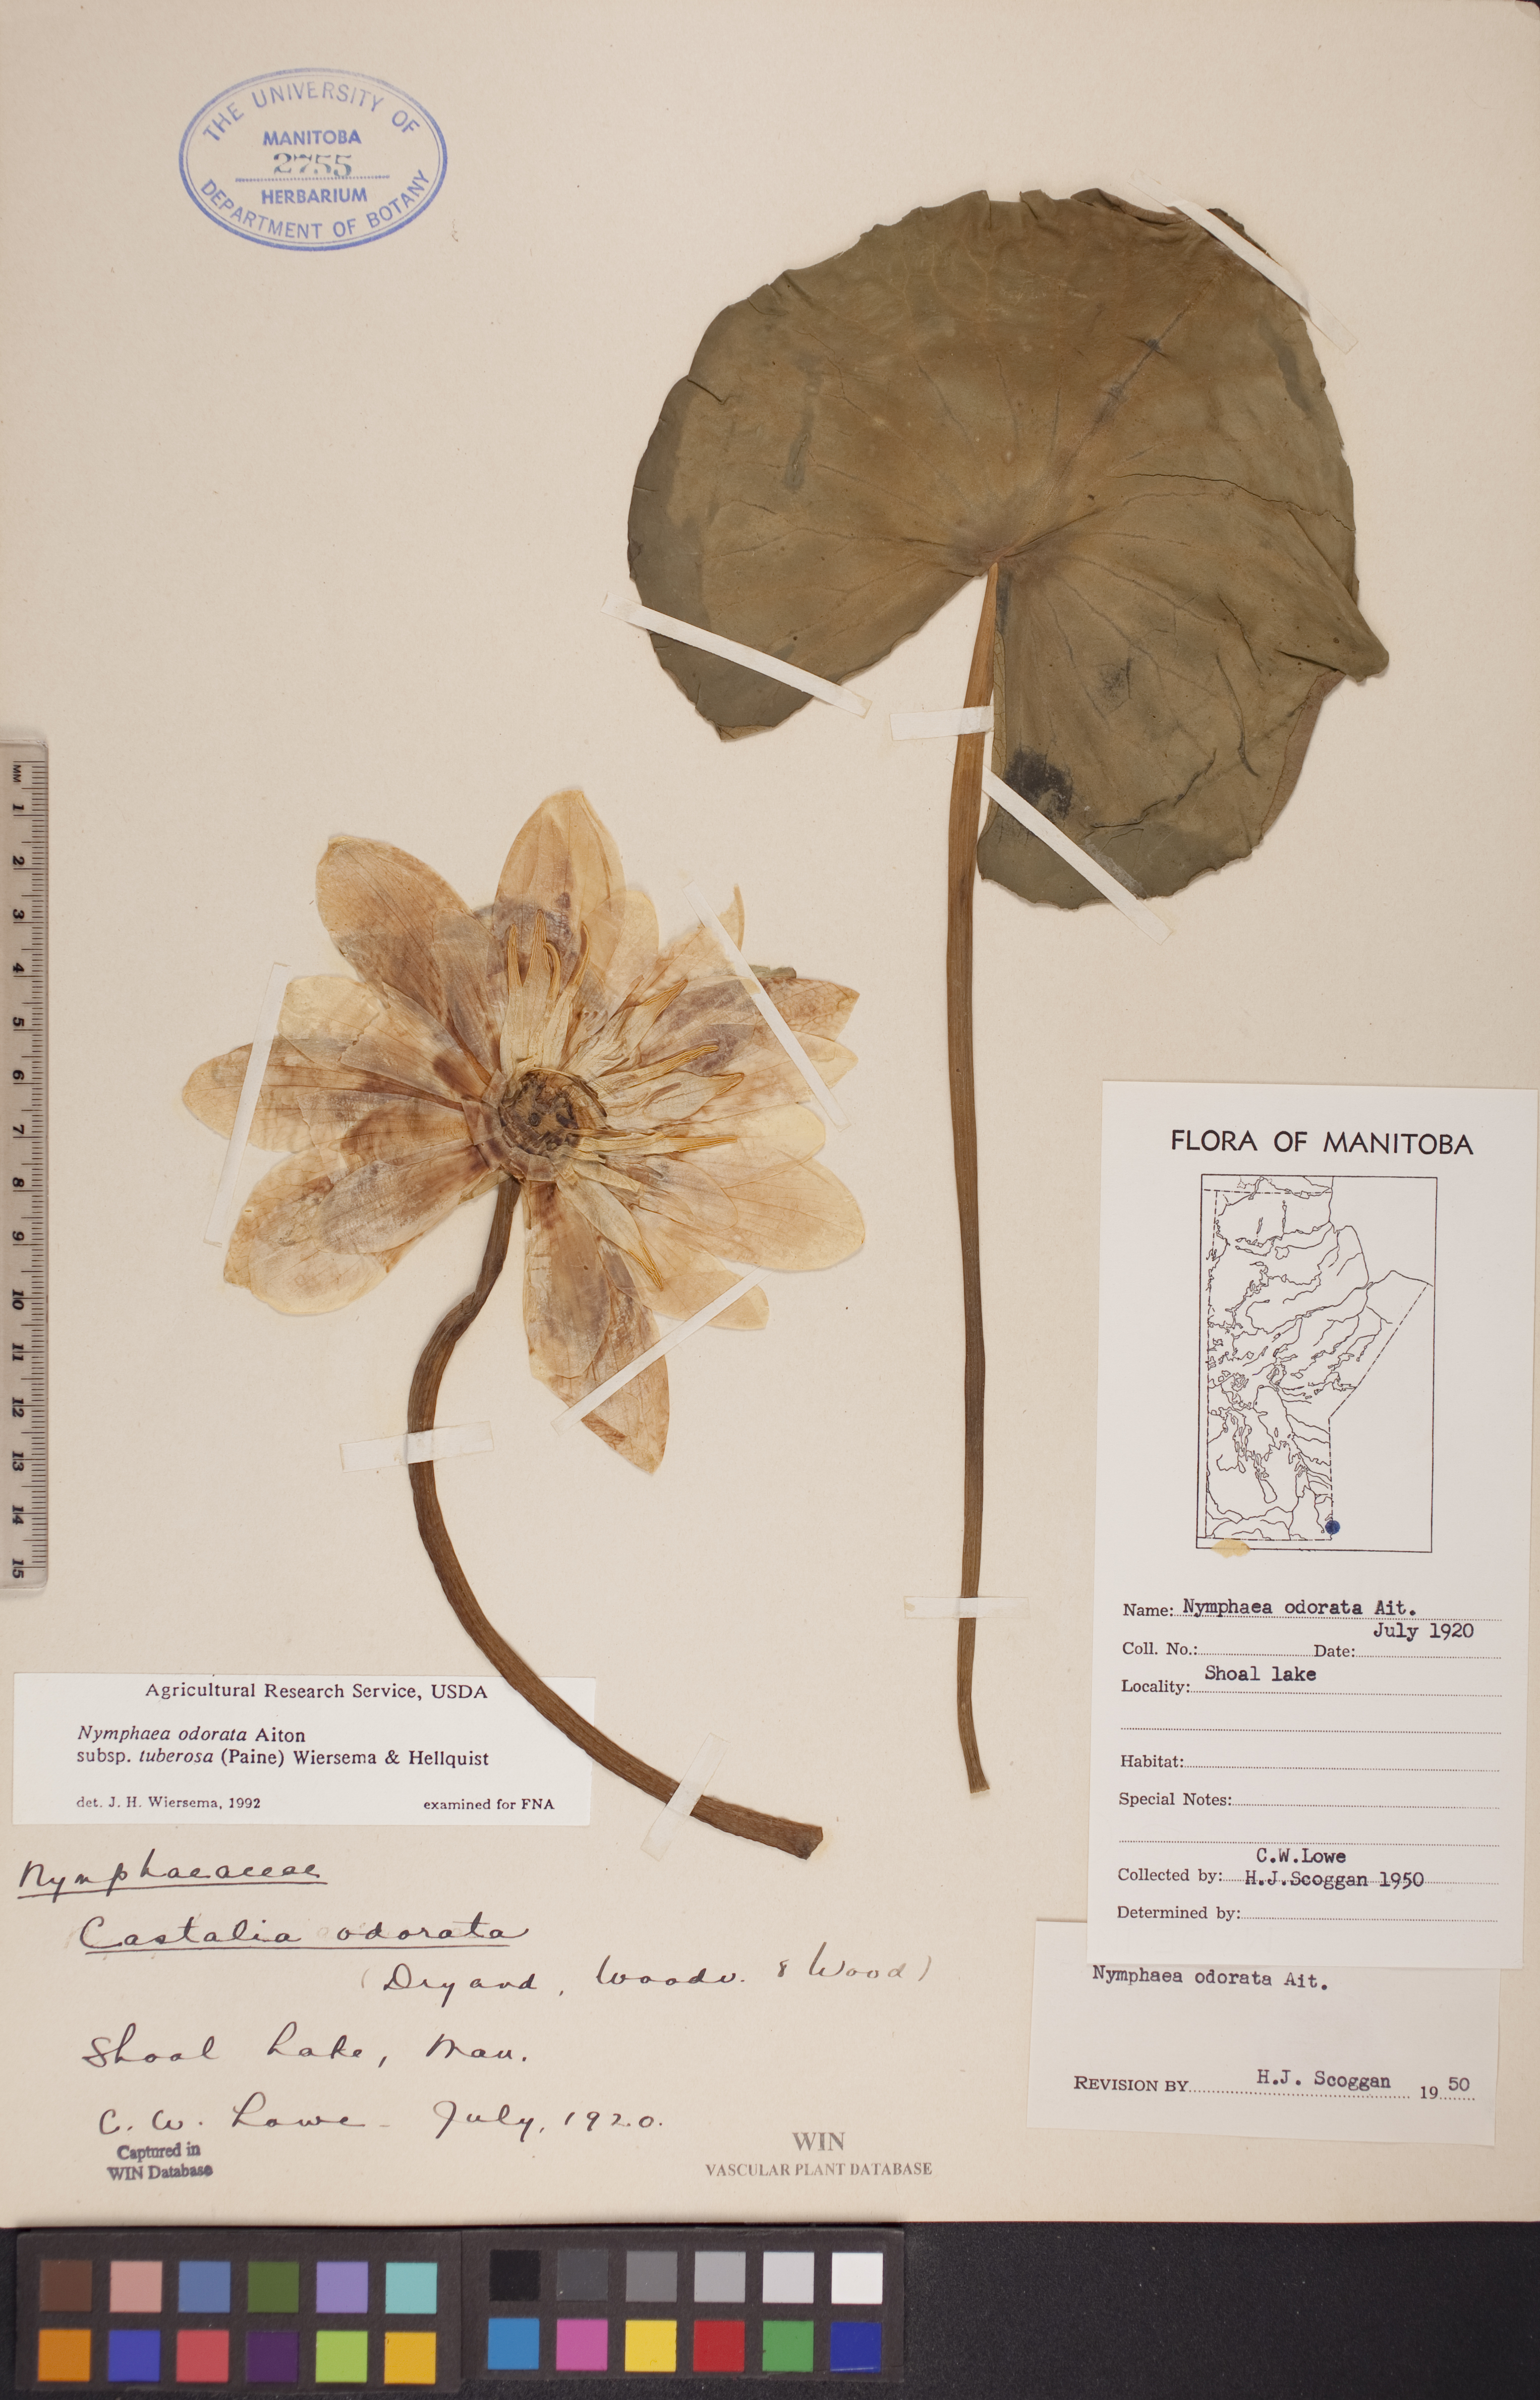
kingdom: Plantae
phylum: Tracheophyta
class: Magnoliopsida
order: Nymphaeales
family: Nymphaeaceae
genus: Nymphaea
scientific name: Nymphaea odorata
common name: Fragrant water-lily
